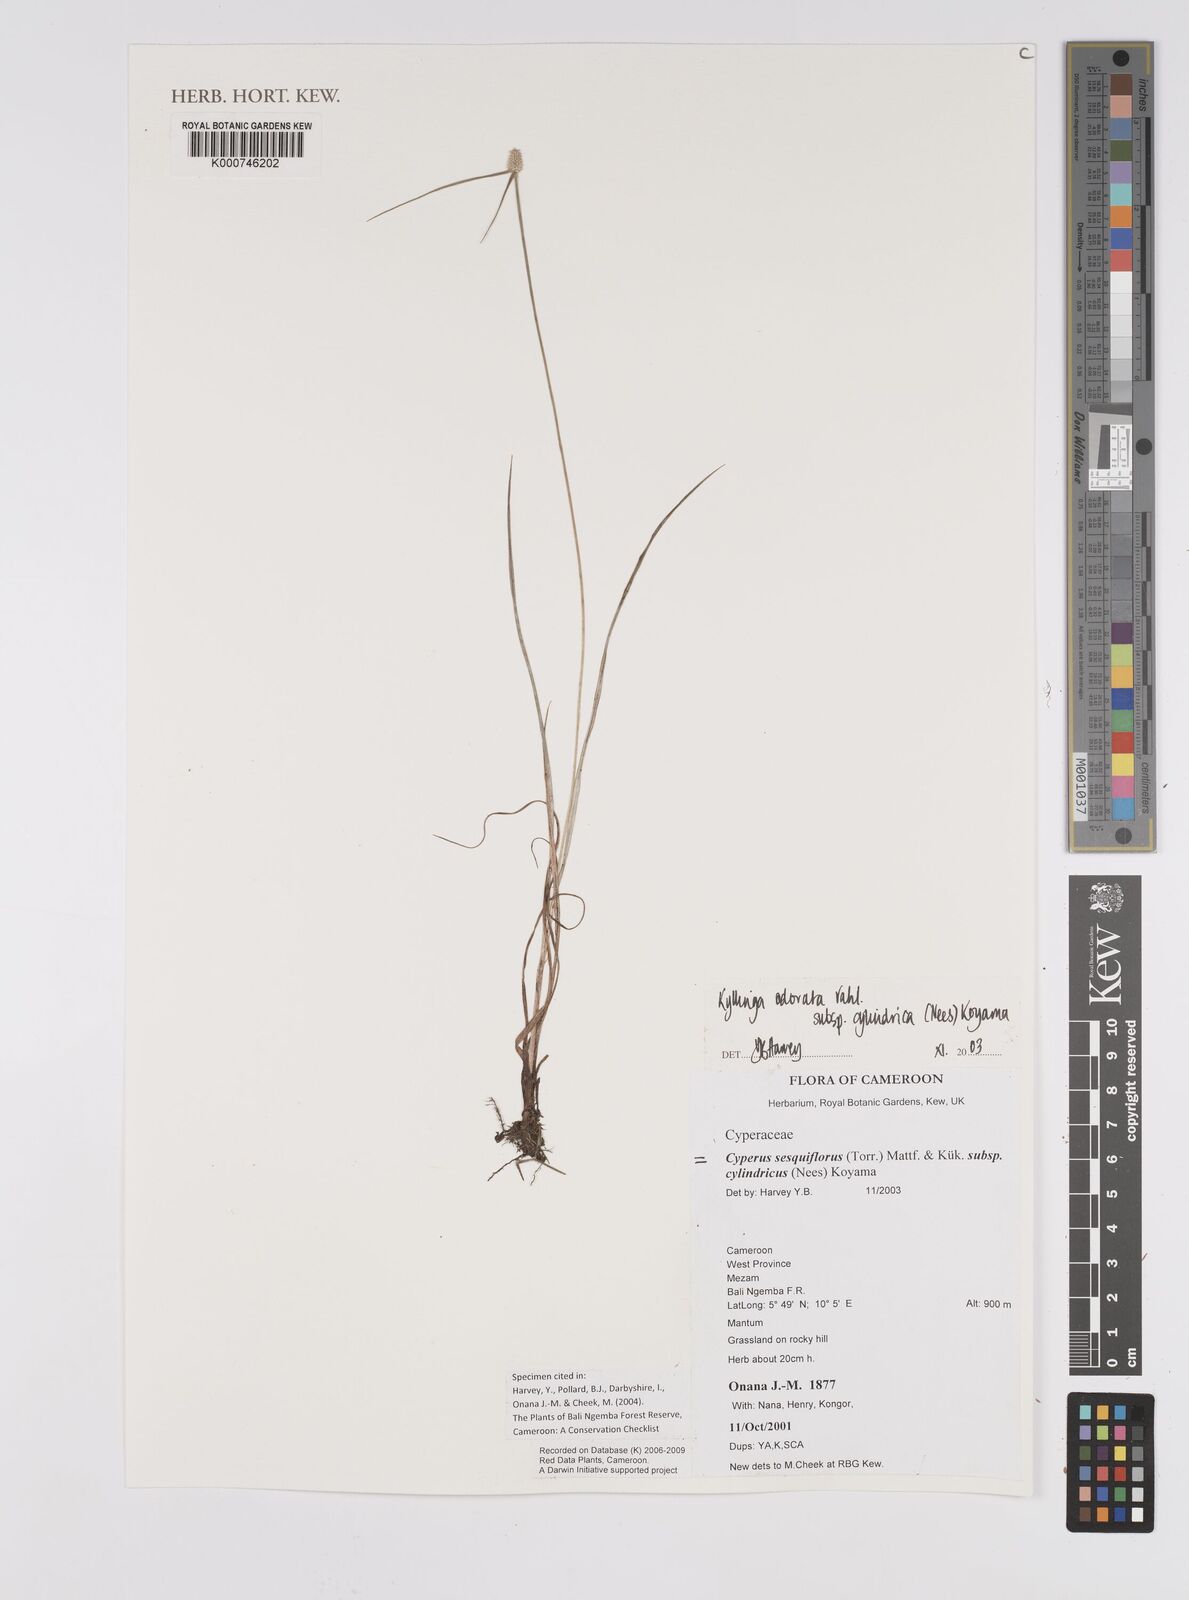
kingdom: Plantae
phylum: Tracheophyta
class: Liliopsida
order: Poales
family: Cyperaceae
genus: Cyperus
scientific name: Cyperus
